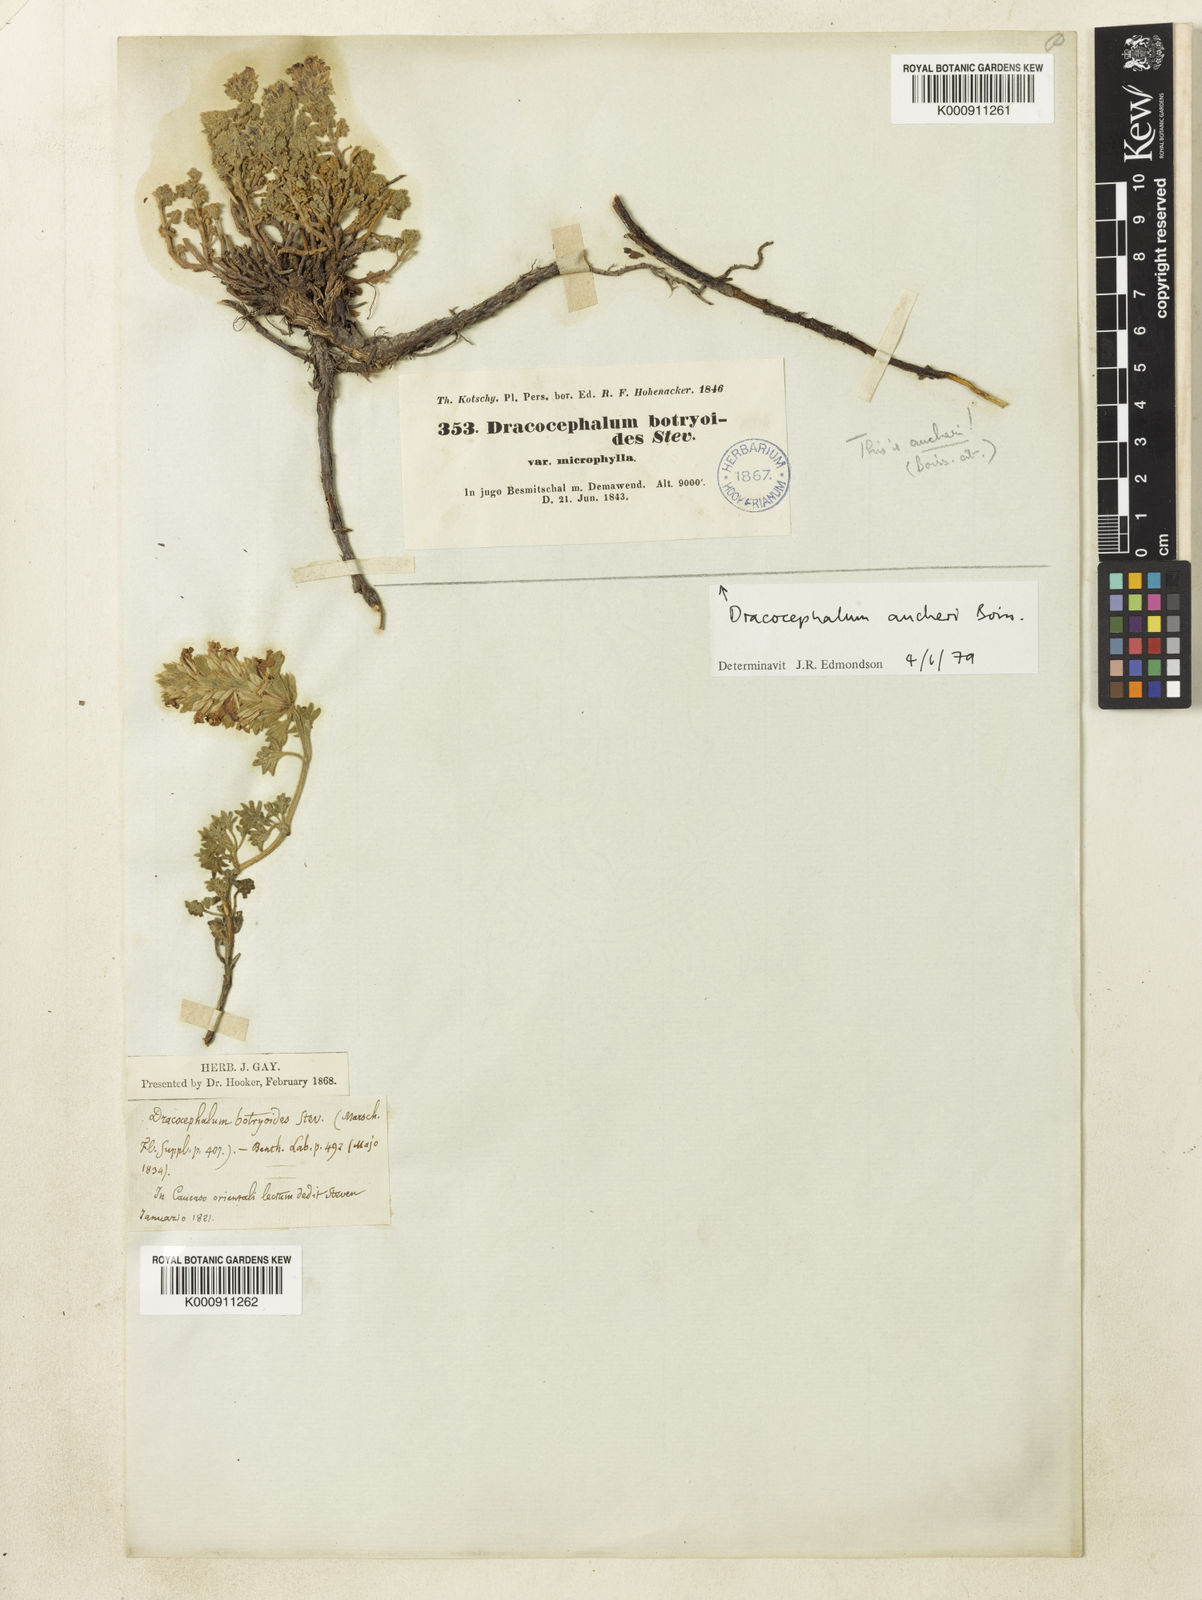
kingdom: Plantae
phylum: Tracheophyta
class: Magnoliopsida
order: Lamiales
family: Lamiaceae
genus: Dracocephalum
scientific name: Dracocephalum botryoides
